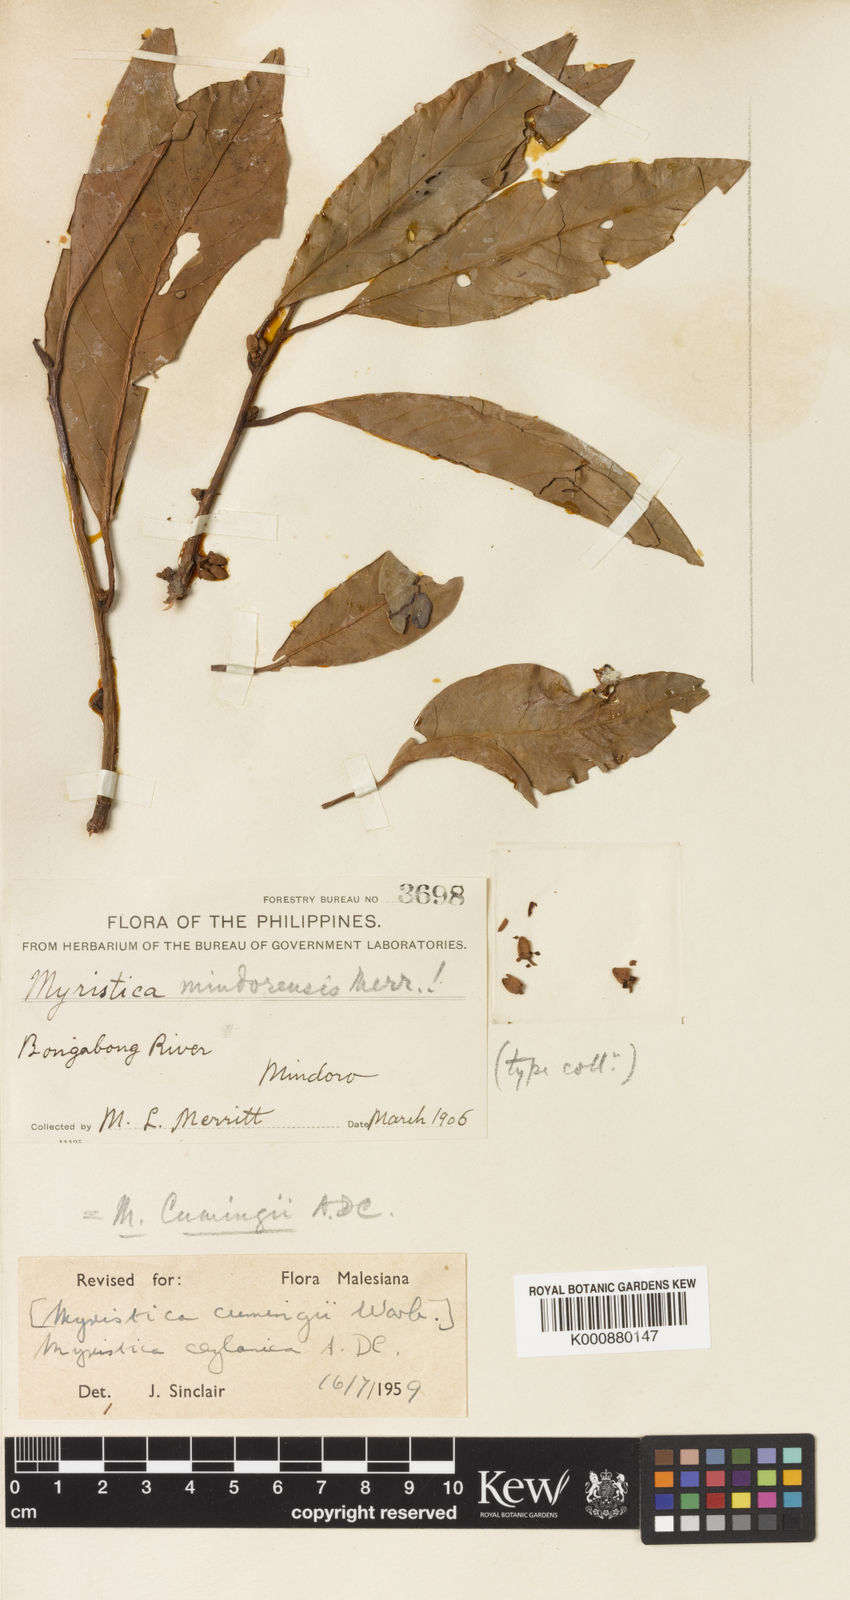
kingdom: Plantae
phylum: Tracheophyta
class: Magnoliopsida
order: Magnoliales
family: Myristicaceae
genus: Myristica
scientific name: Myristica ceylanica
